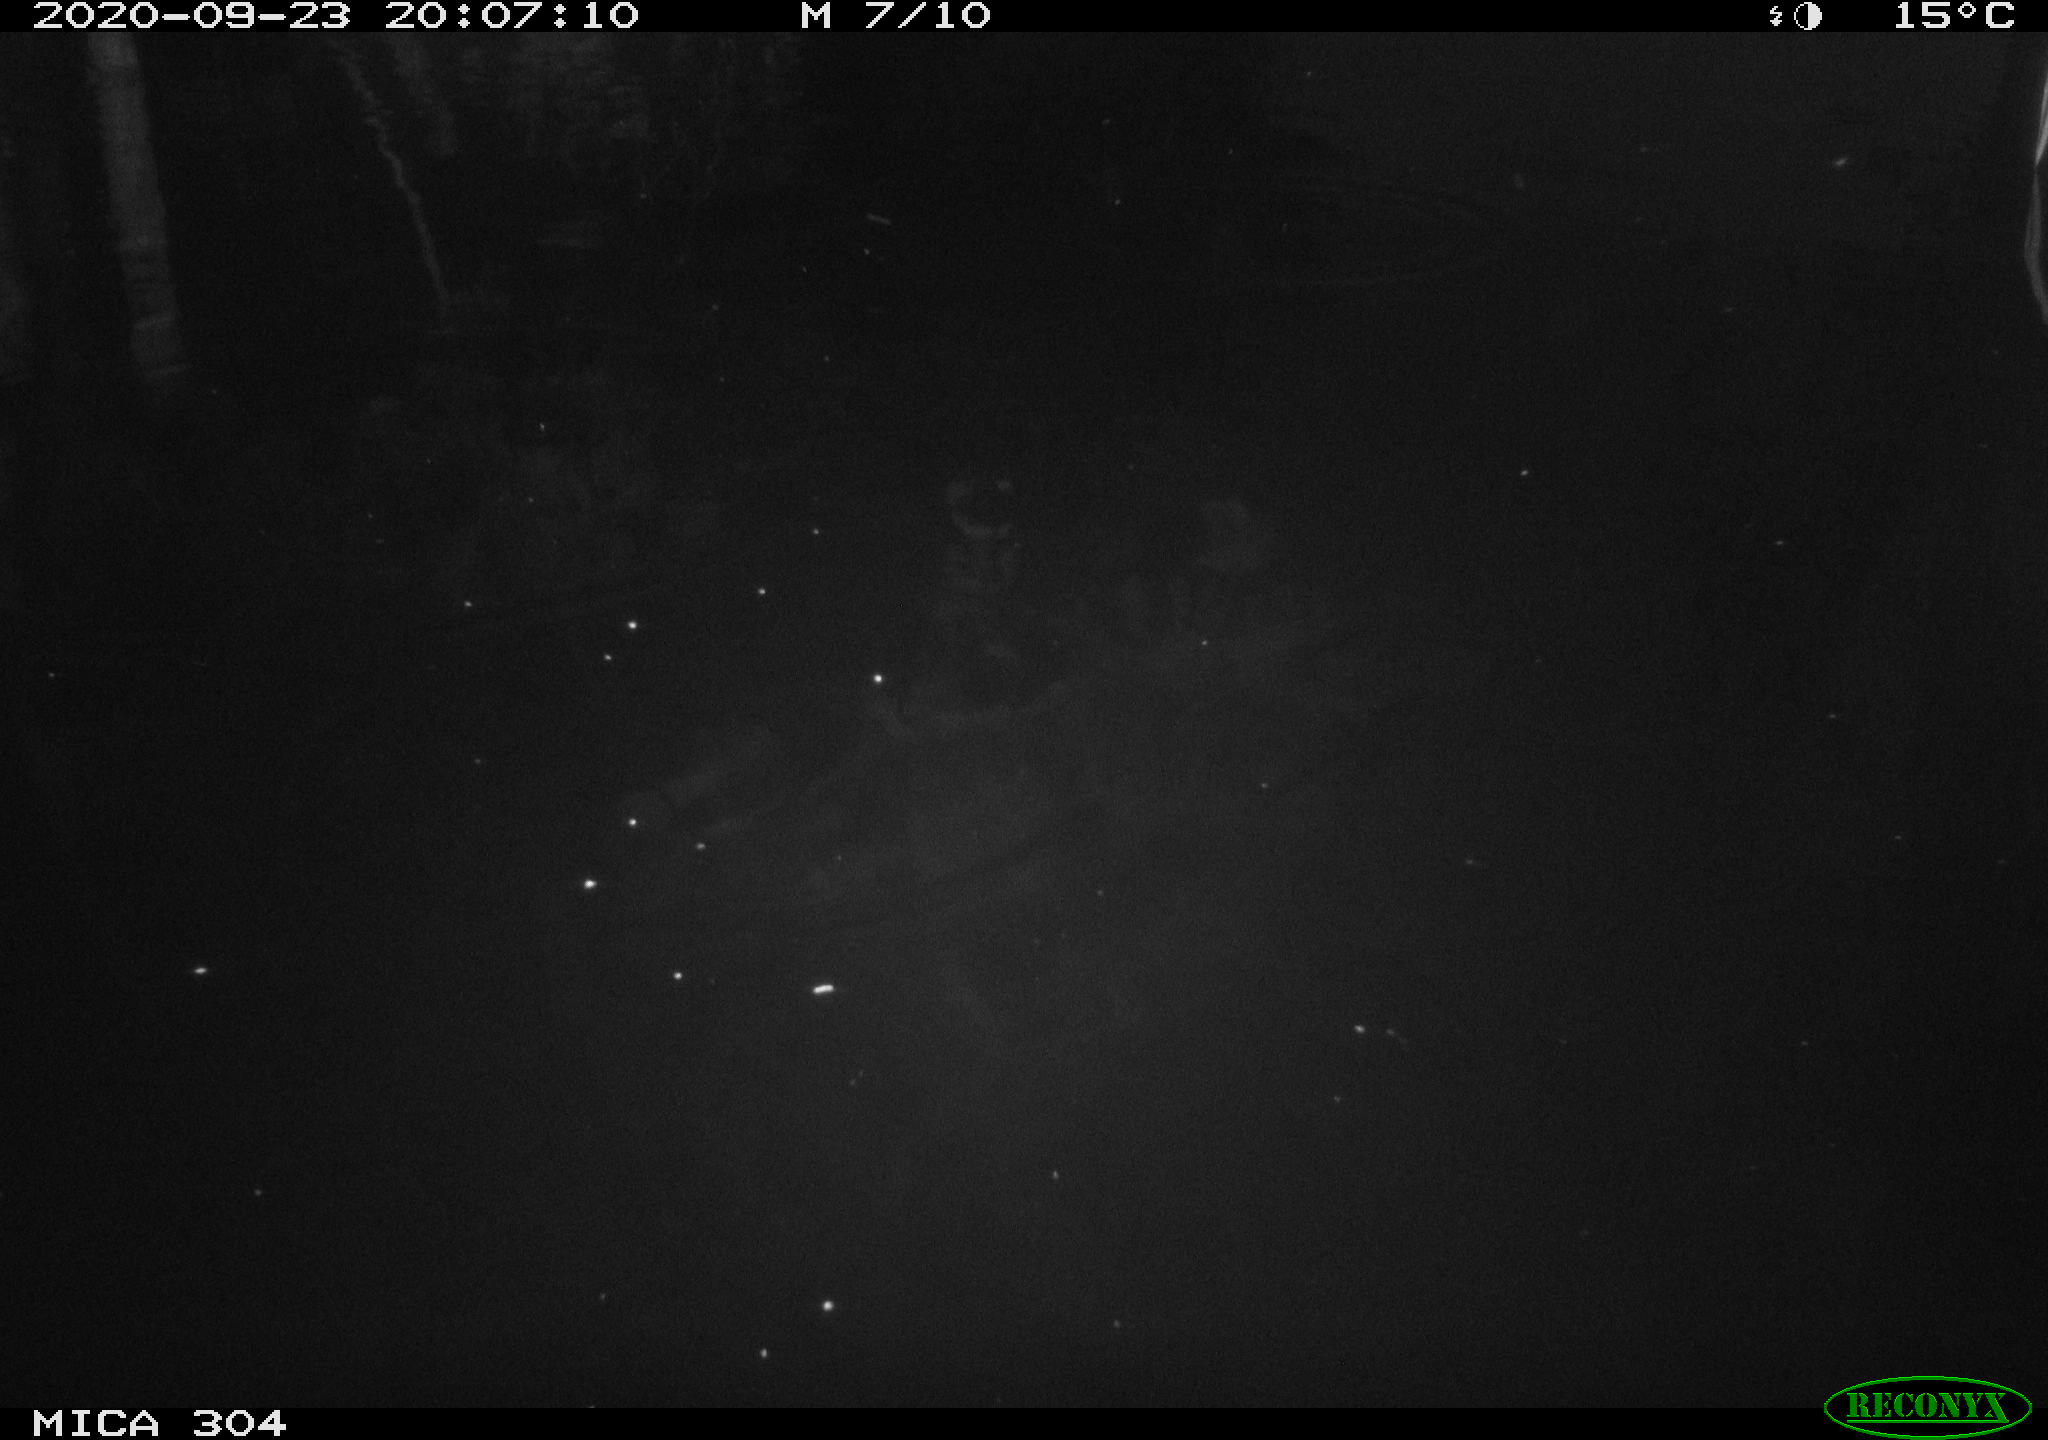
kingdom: Animalia
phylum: Chordata
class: Aves
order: Gruiformes
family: Rallidae
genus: Fulica
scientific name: Fulica atra
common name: Eurasian coot
